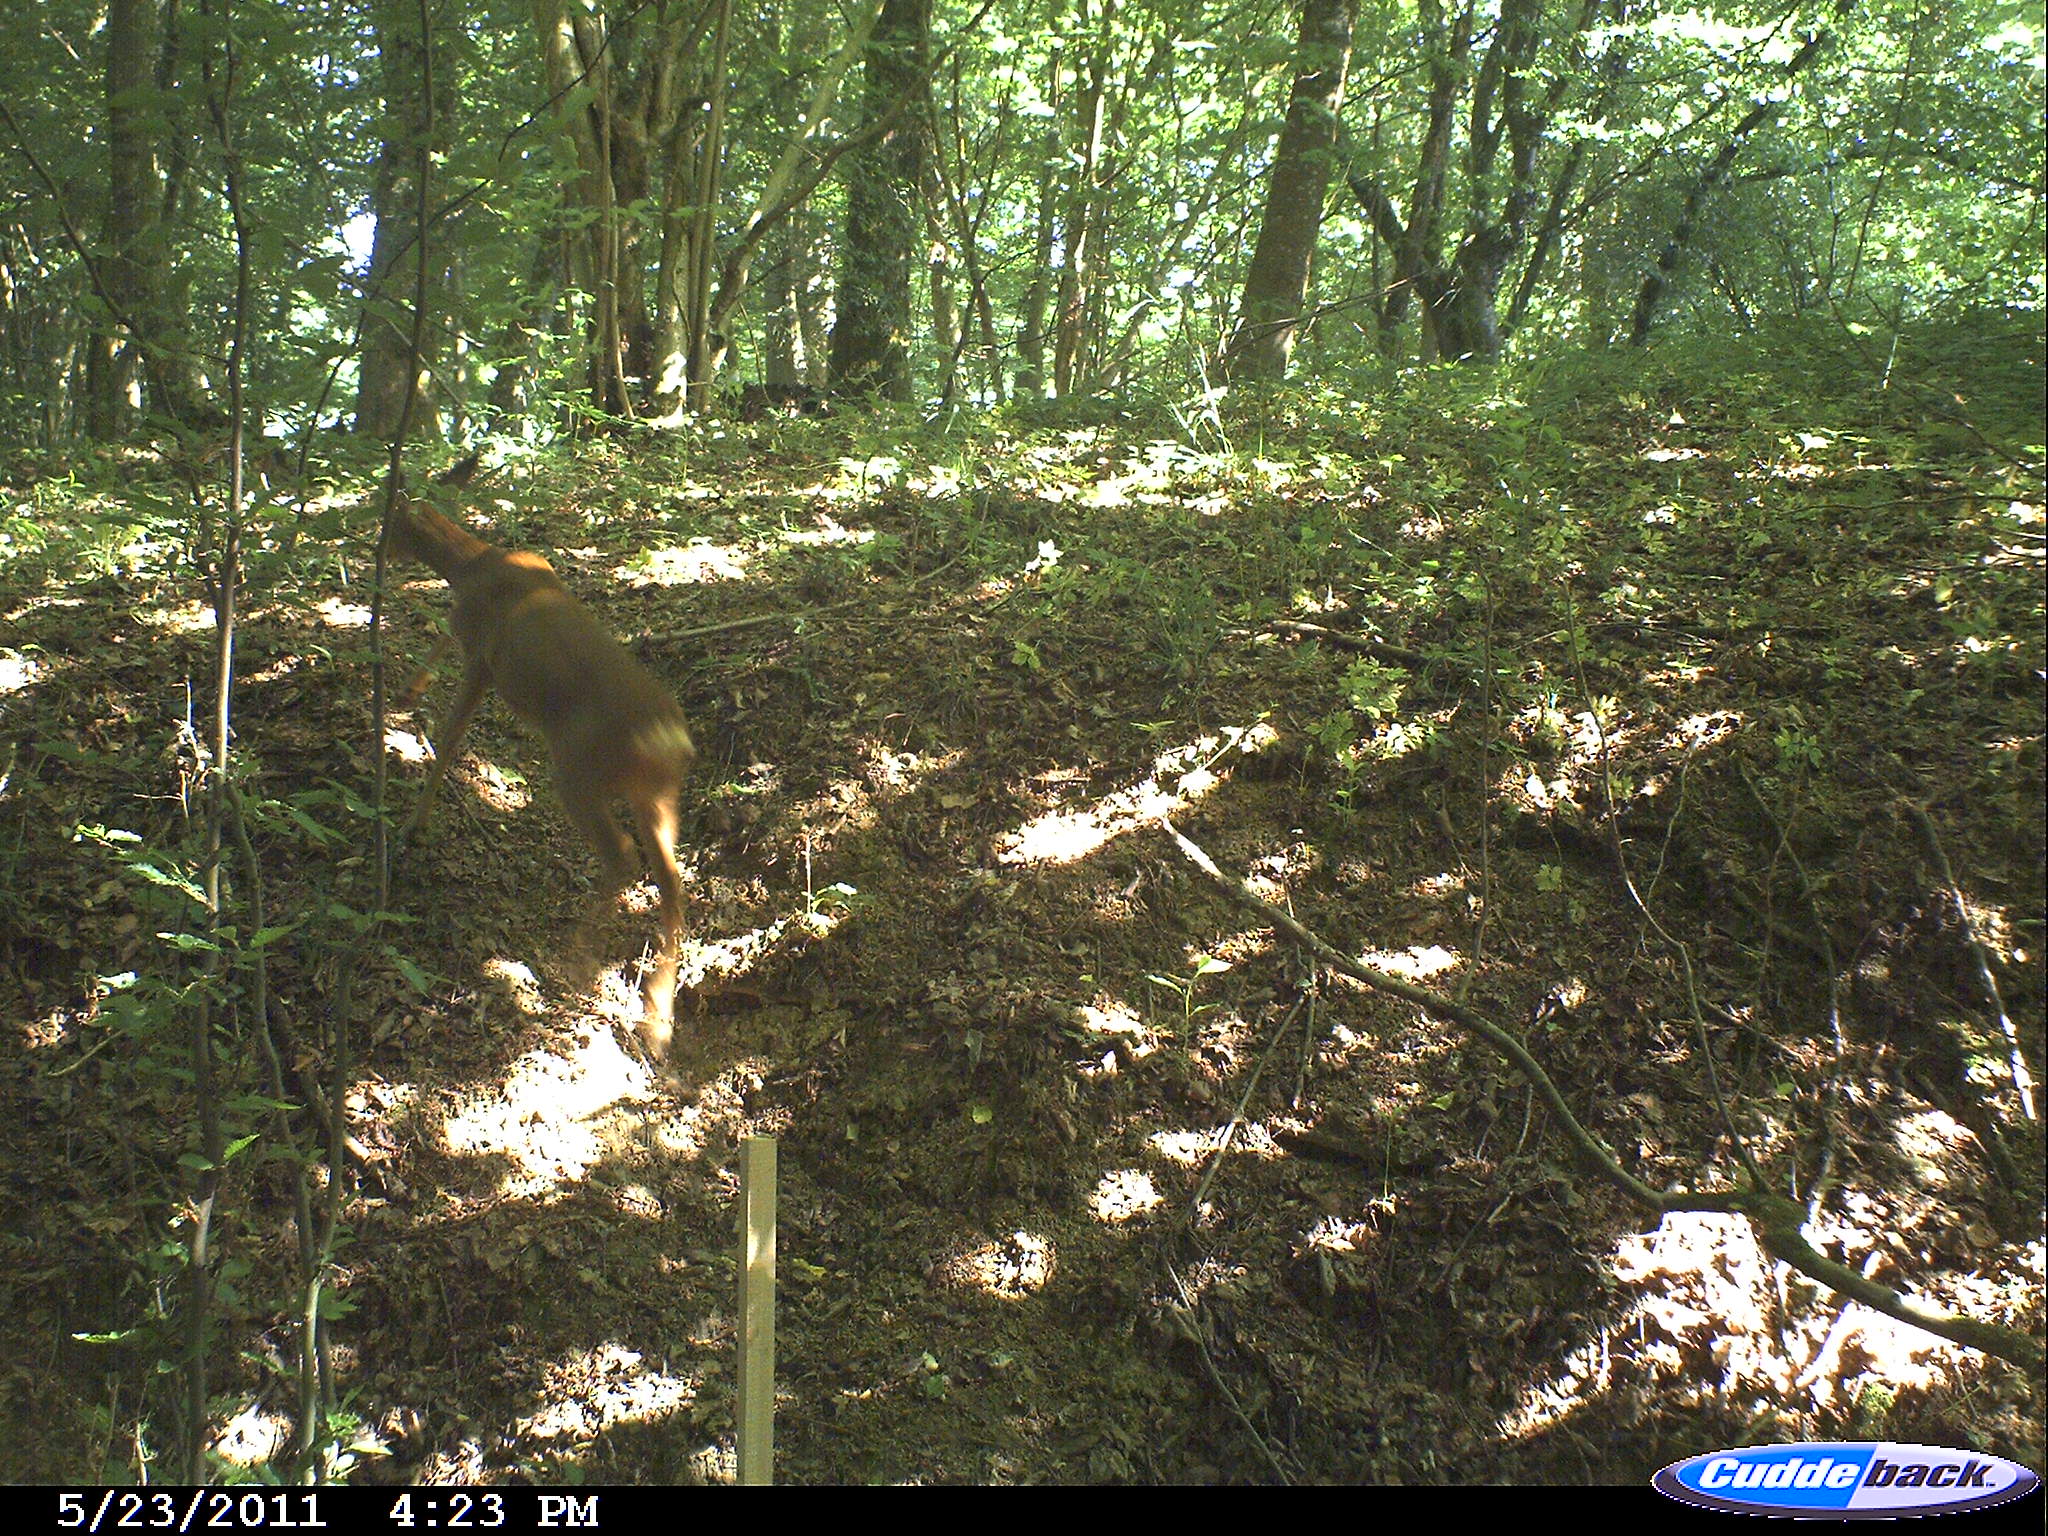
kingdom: Animalia
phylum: Chordata
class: Mammalia
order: Artiodactyla
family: Cervidae
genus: Capreolus
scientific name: Capreolus capreolus
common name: Western roe deer
